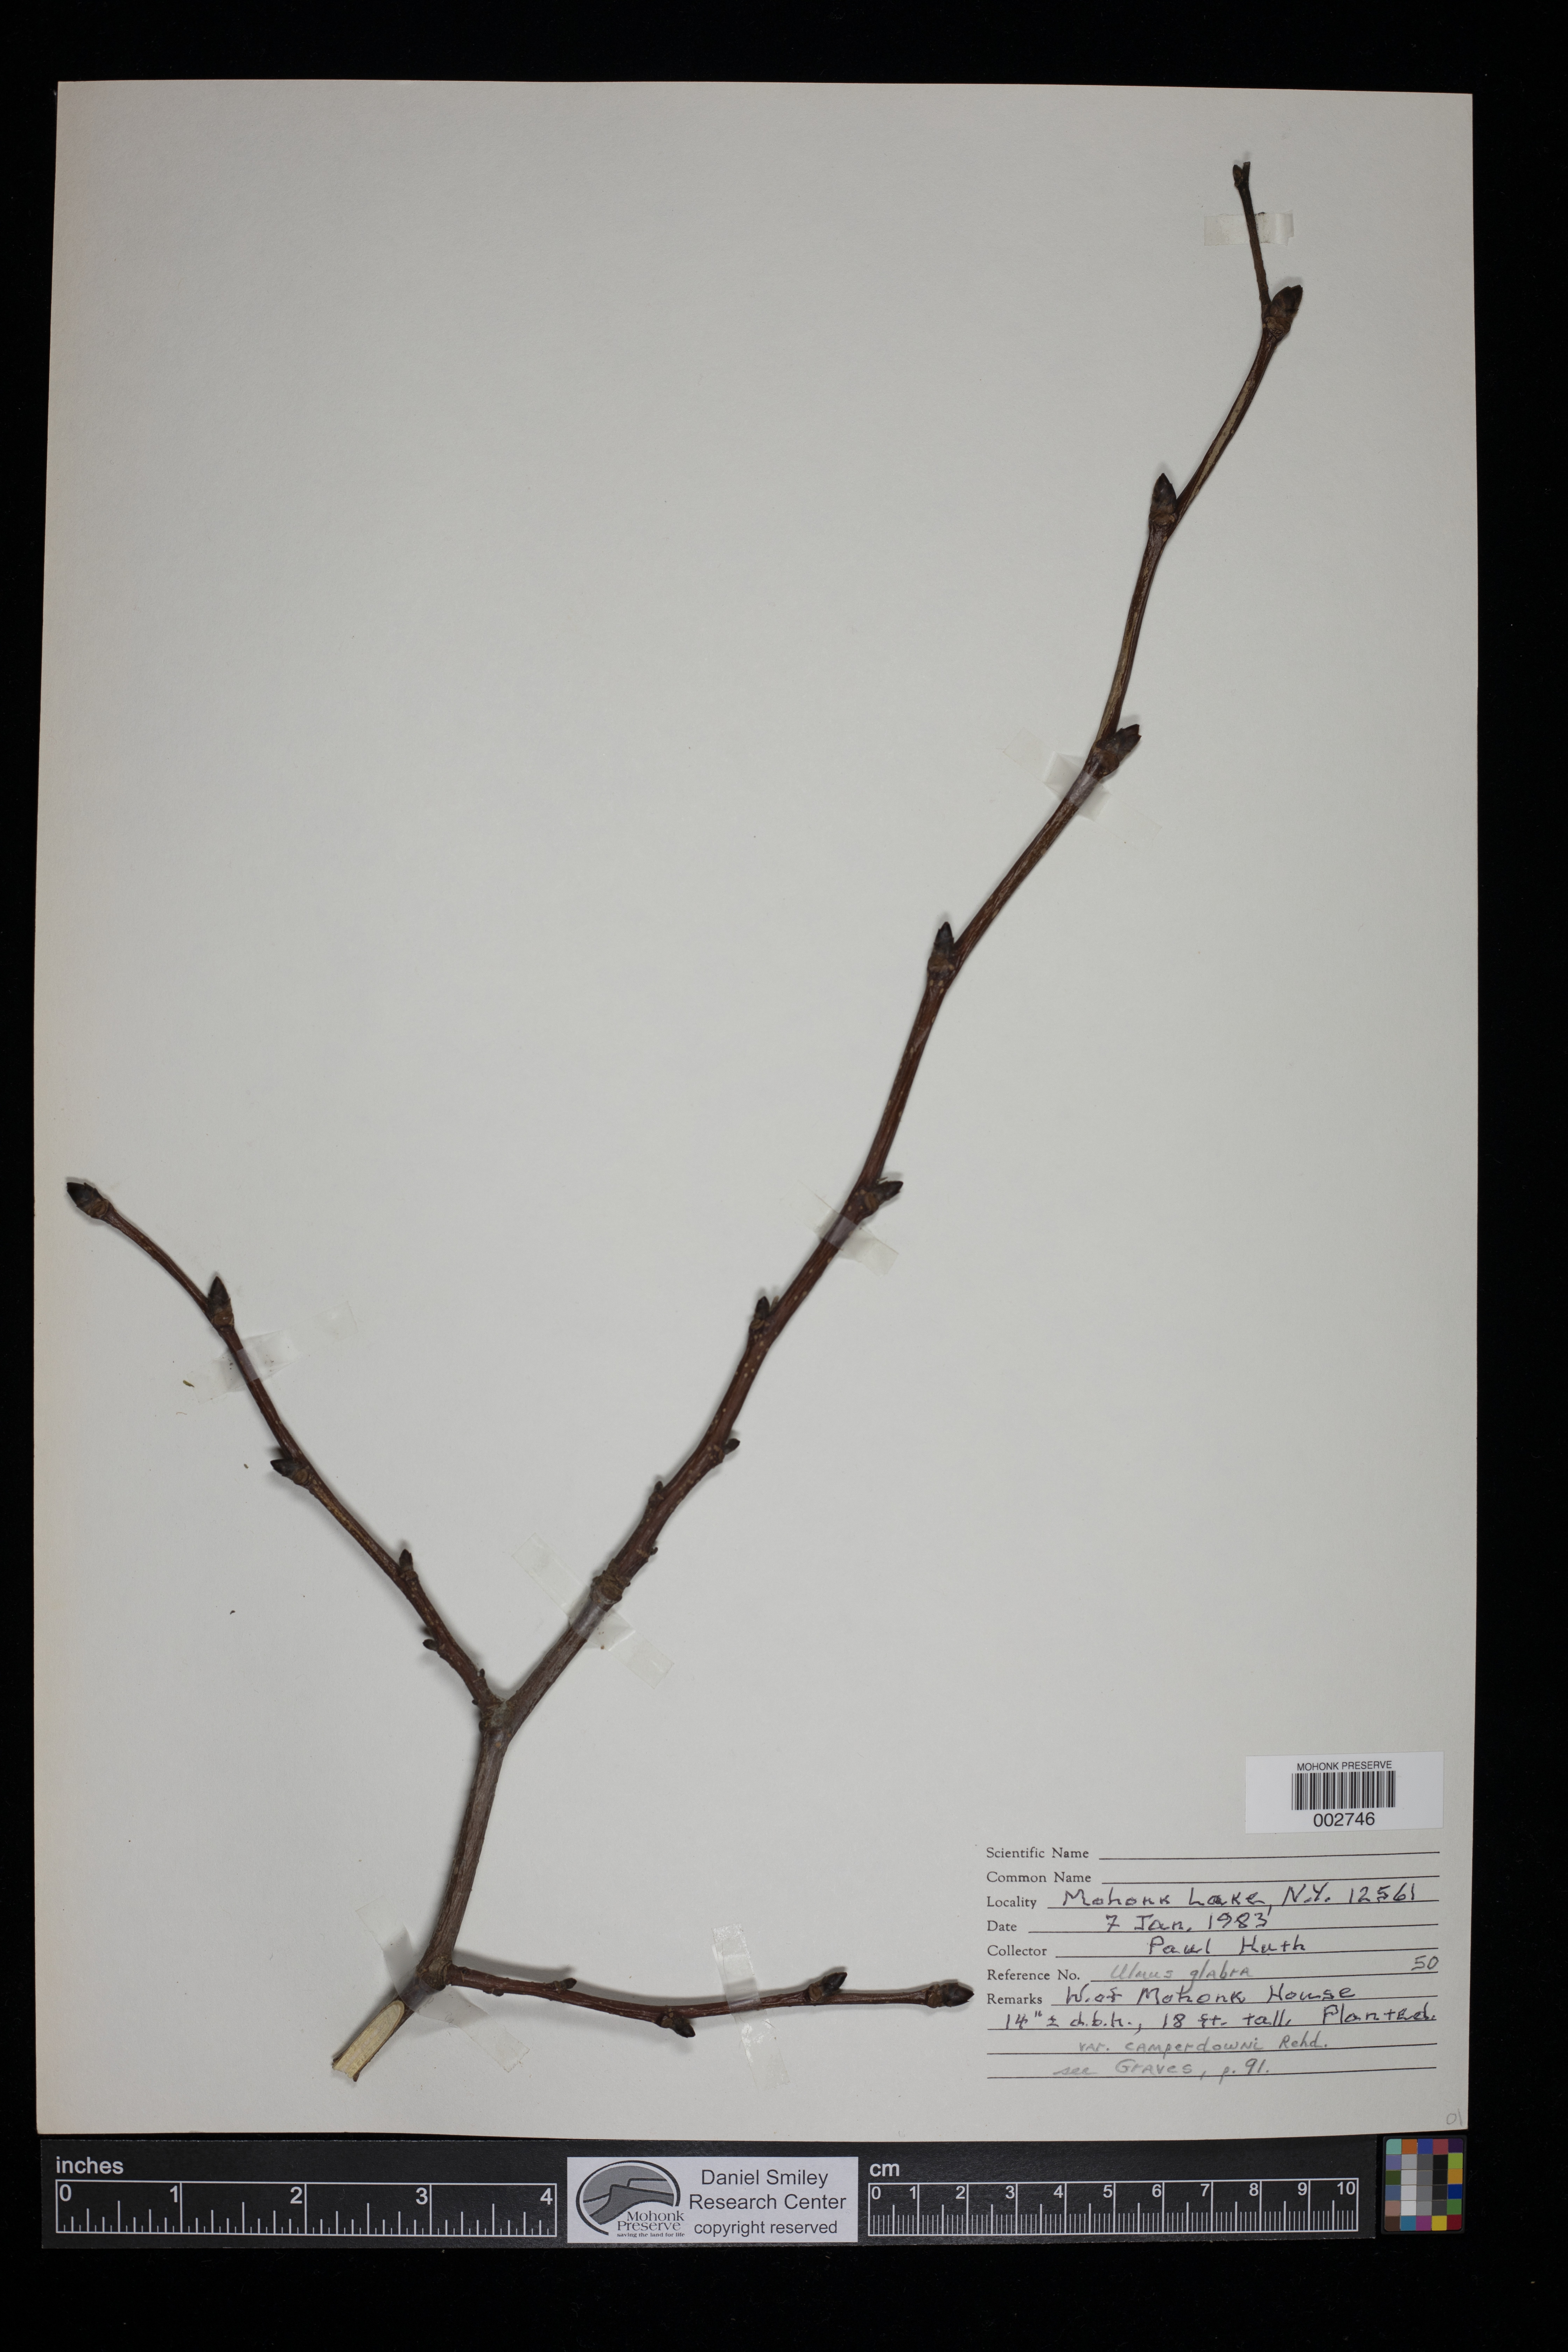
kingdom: Plantae
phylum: Tracheophyta
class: Magnoliopsida
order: Rosales
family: Ulmaceae
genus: Ulmus
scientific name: Ulmus glabra
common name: Wych elm
